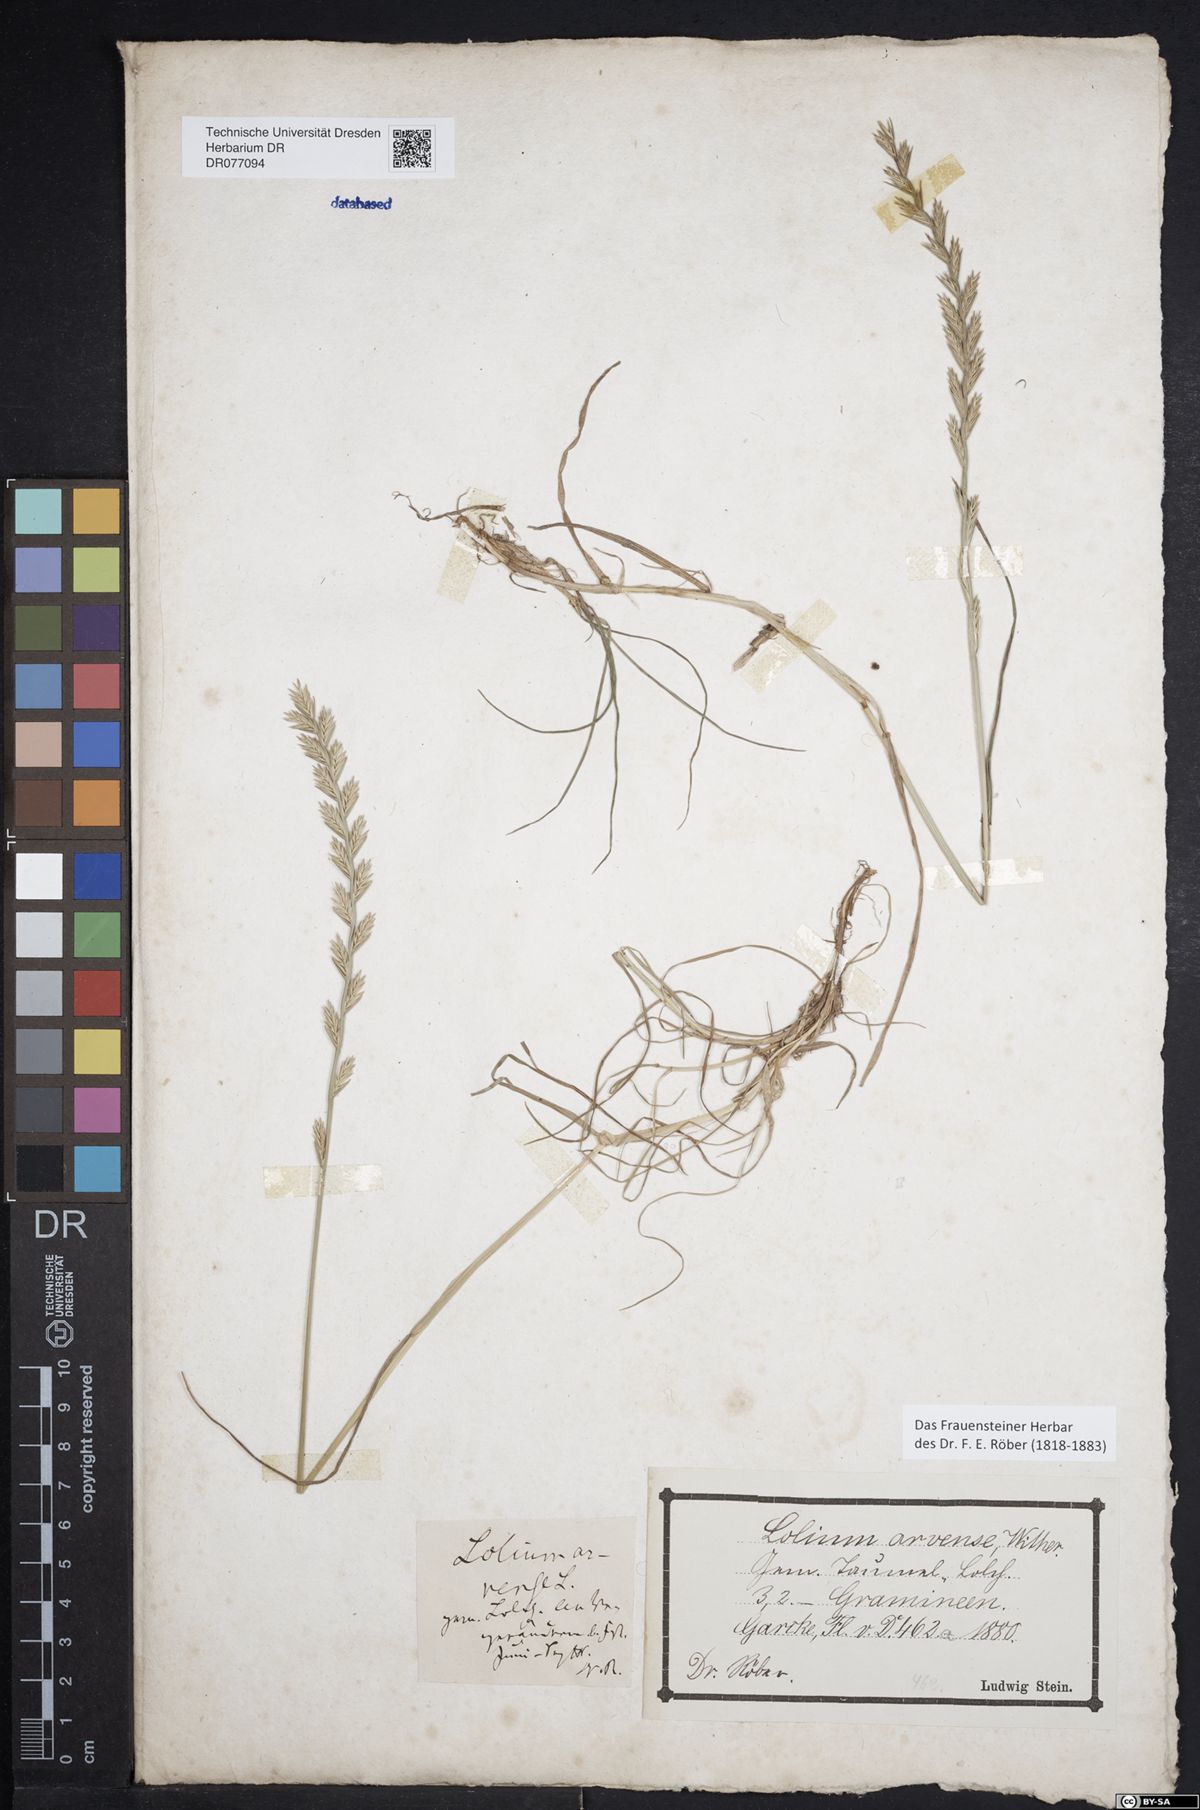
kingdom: Plantae
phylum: Tracheophyta
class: Liliopsida
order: Poales
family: Poaceae
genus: Lolium
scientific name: Lolium perenne
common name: Perennial ryegrass
